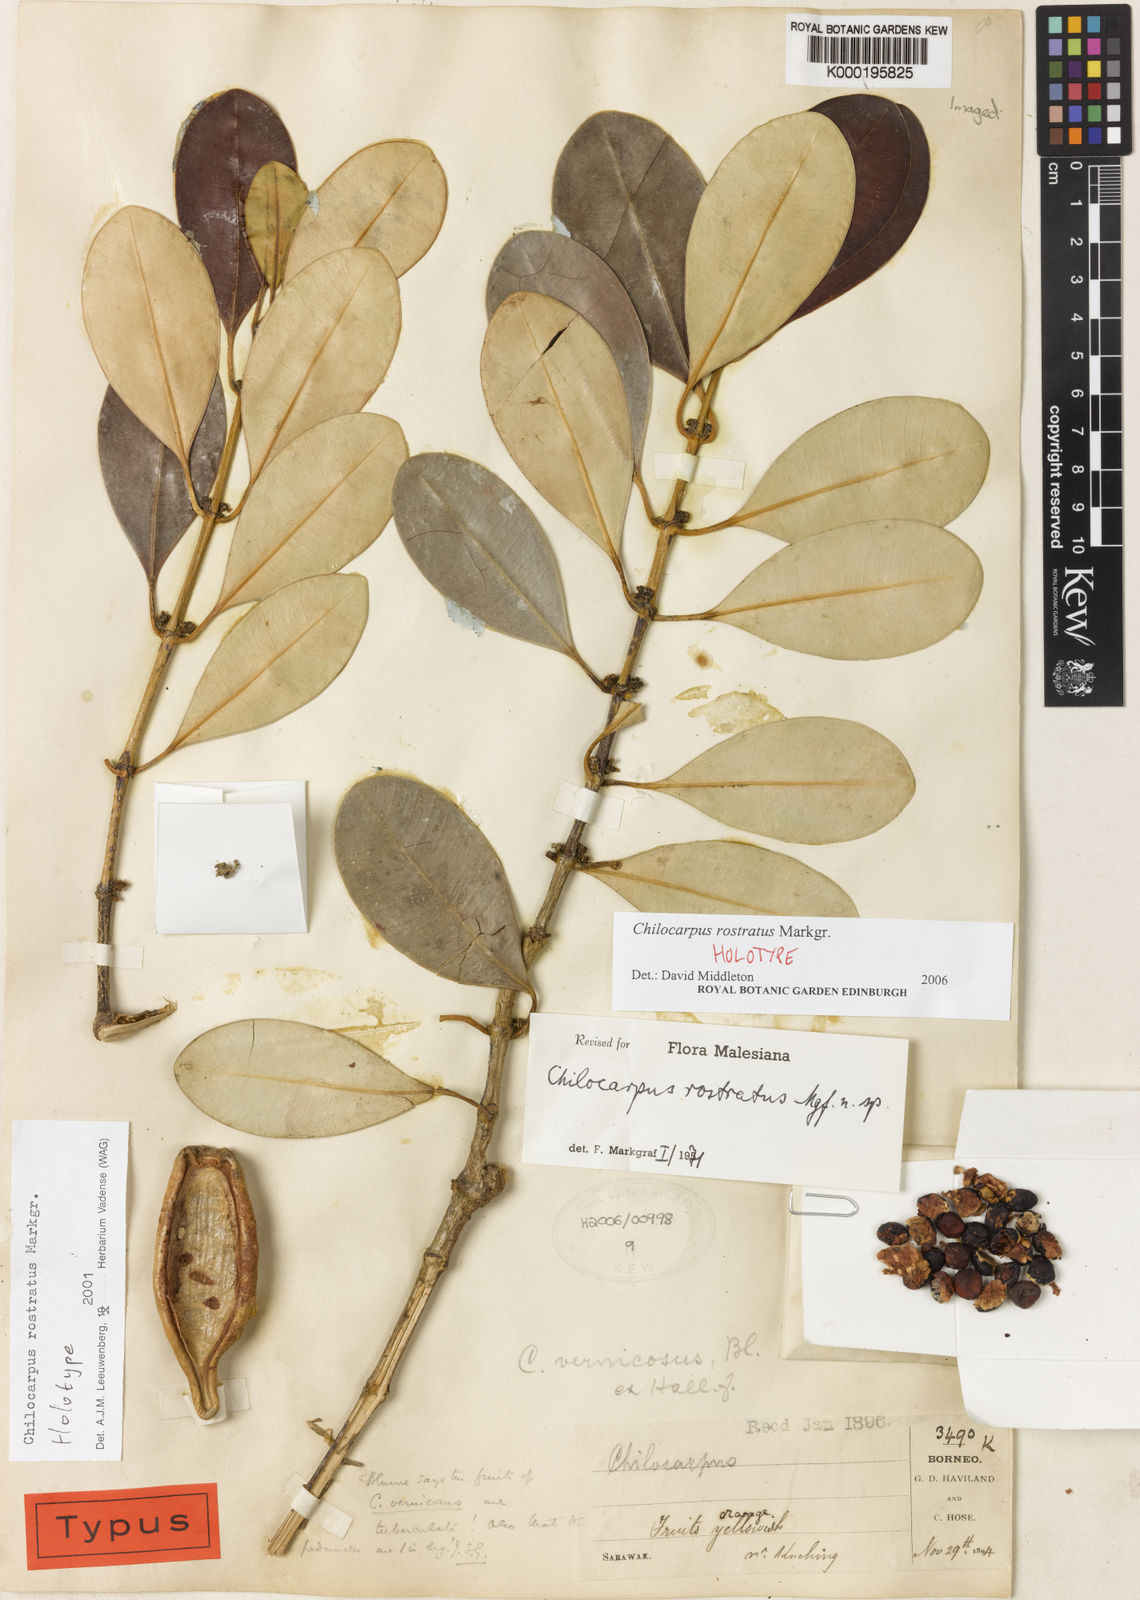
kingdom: Plantae
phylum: Tracheophyta
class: Magnoliopsida
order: Gentianales
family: Apocynaceae
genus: Chilocarpus
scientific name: Chilocarpus rostratus
